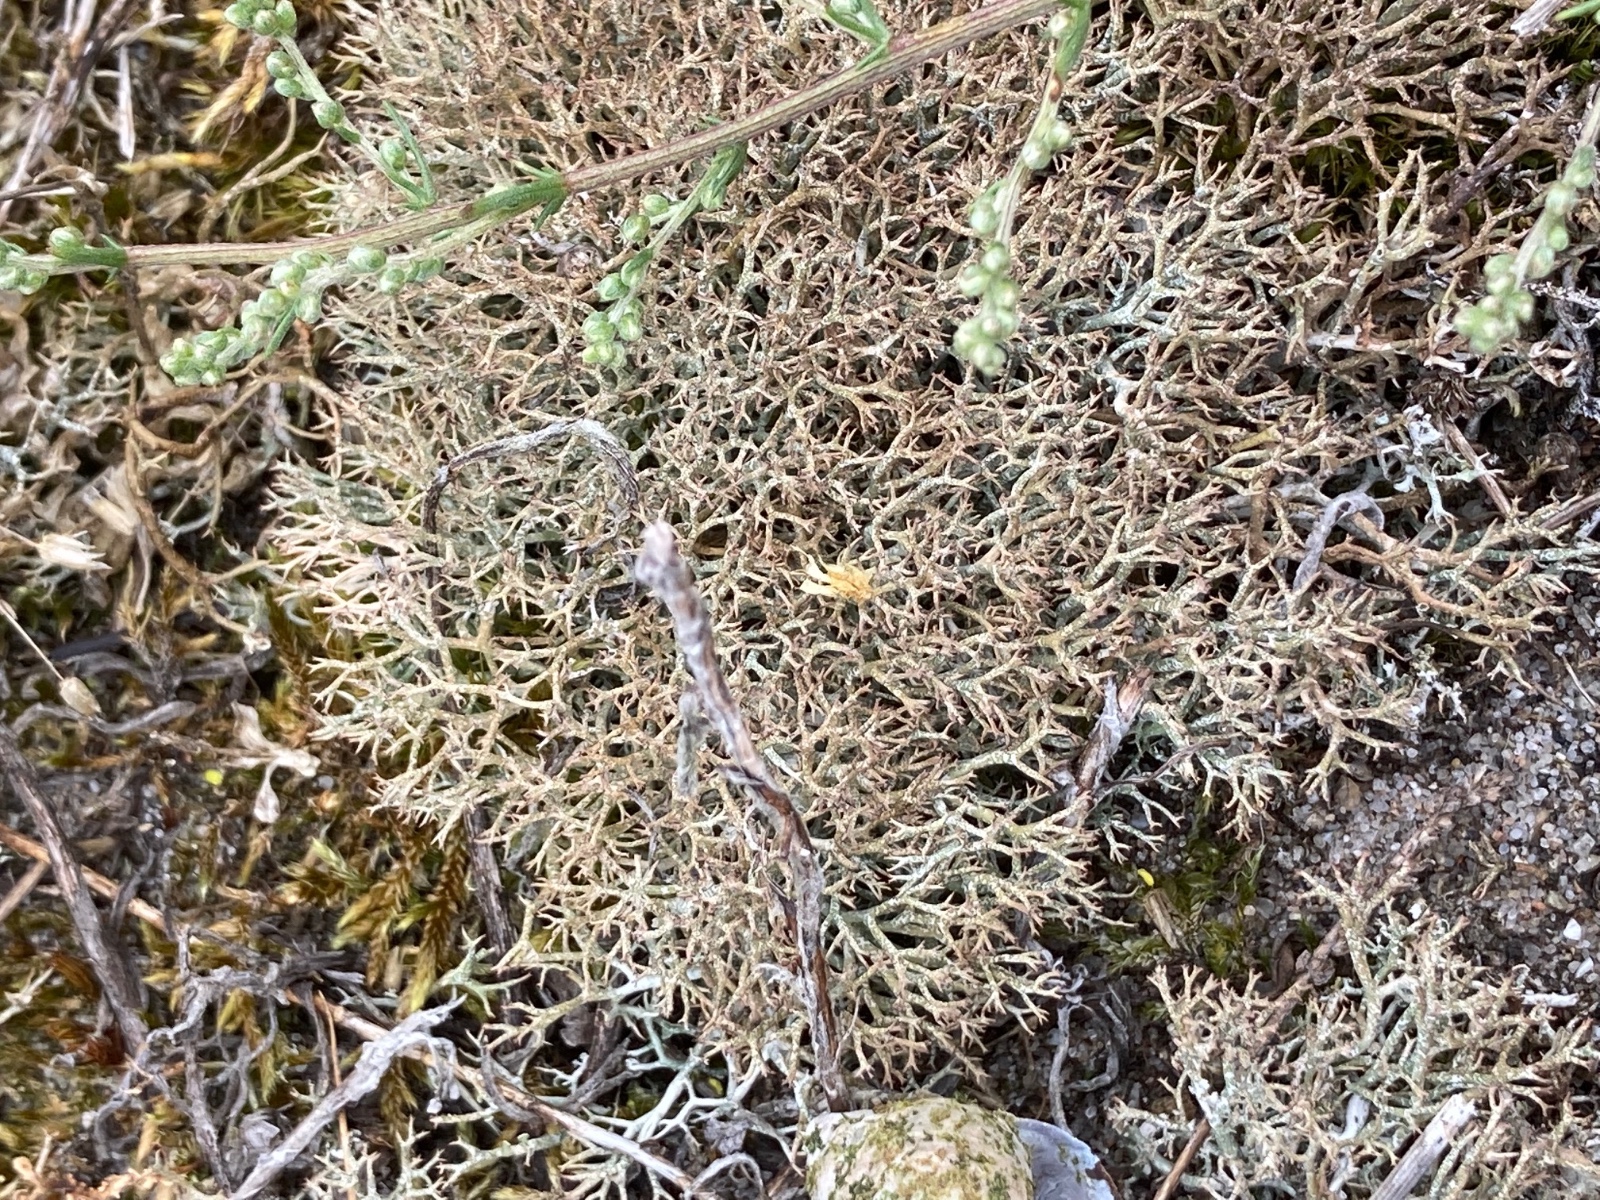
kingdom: Fungi
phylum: Ascomycota
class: Lecanoromycetes
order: Lecanorales
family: Cladoniaceae
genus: Cladonia
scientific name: Cladonia rangiformis
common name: spættet bægerlav
